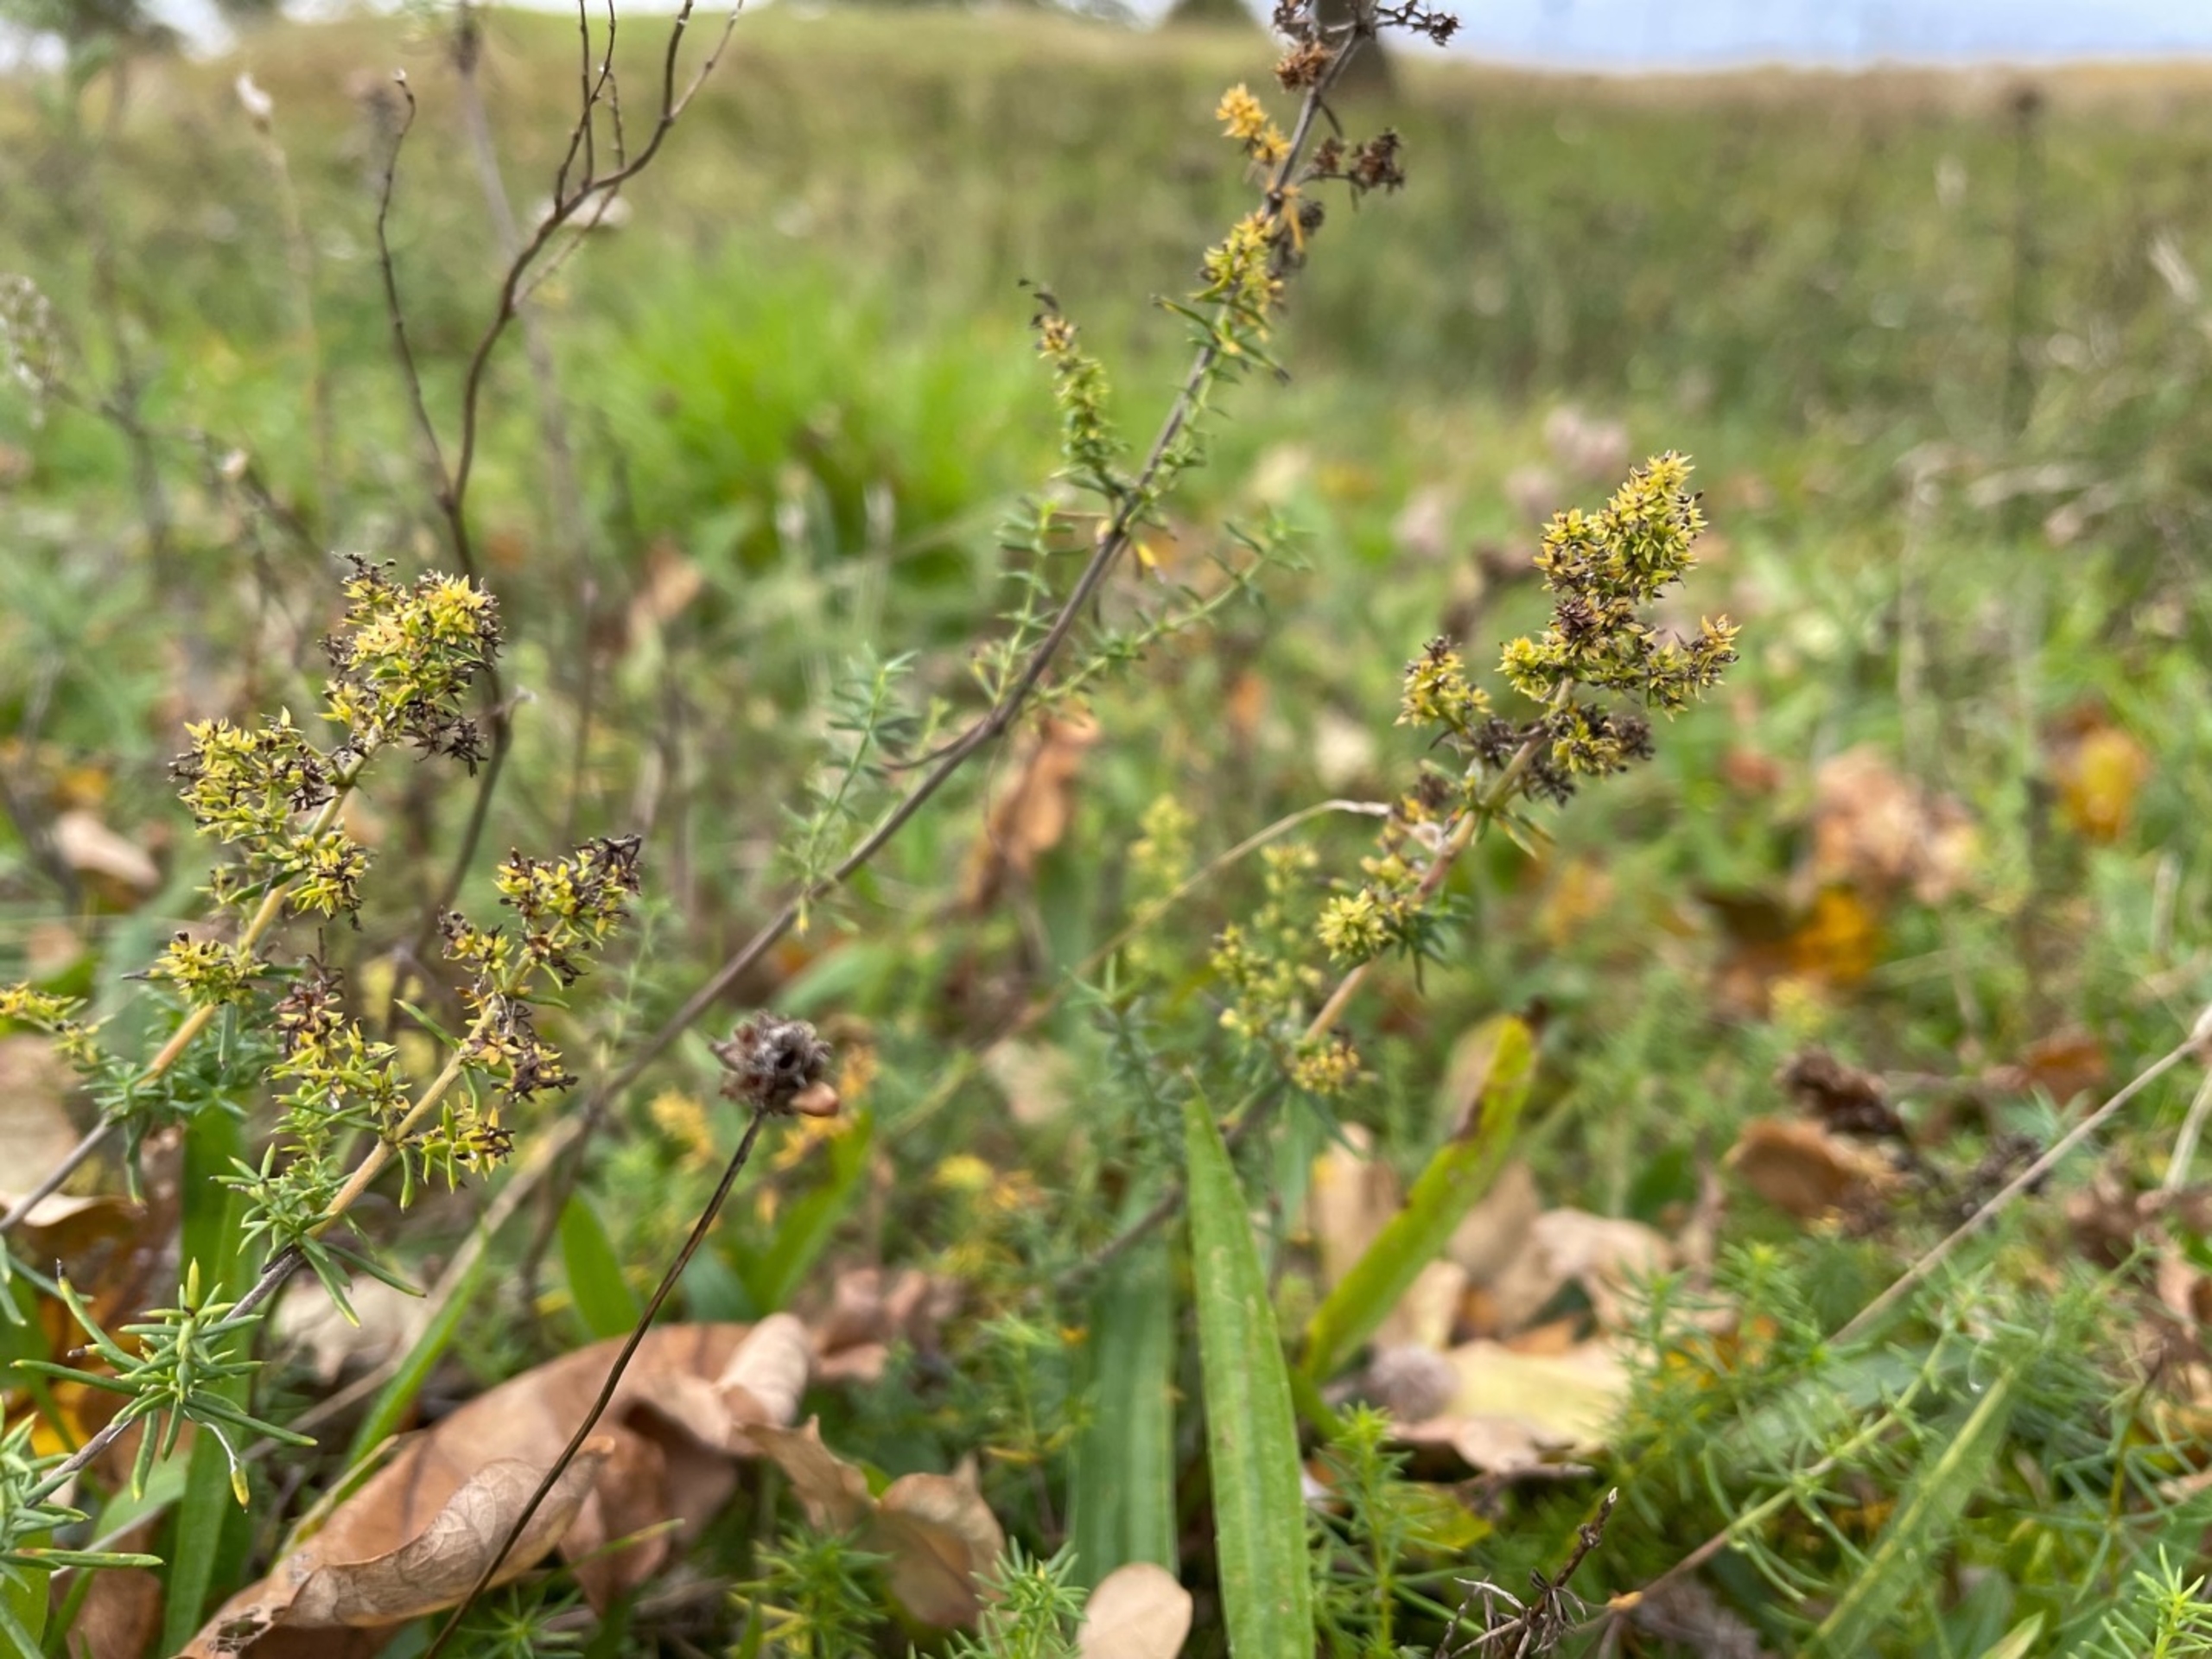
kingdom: Plantae
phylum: Tracheophyta
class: Magnoliopsida
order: Gentianales
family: Rubiaceae
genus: Galium
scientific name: Galium verum
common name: Gul snerre
